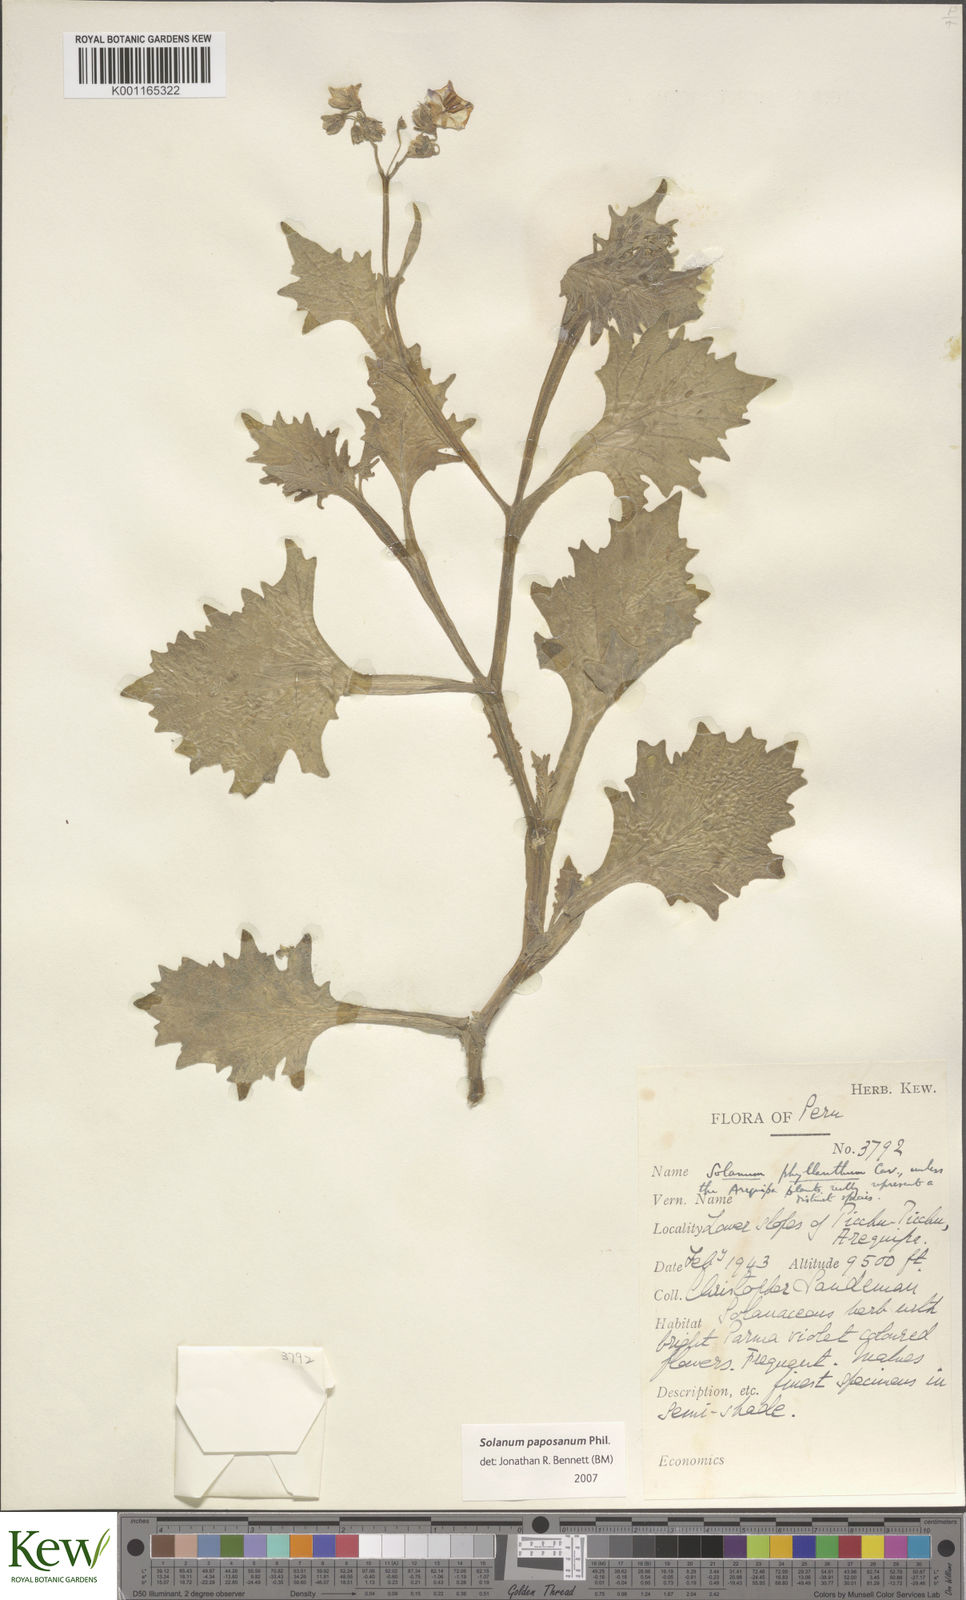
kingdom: Plantae
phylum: Tracheophyta
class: Magnoliopsida
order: Solanales
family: Solanaceae
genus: Solanum
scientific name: Solanum paposanum
